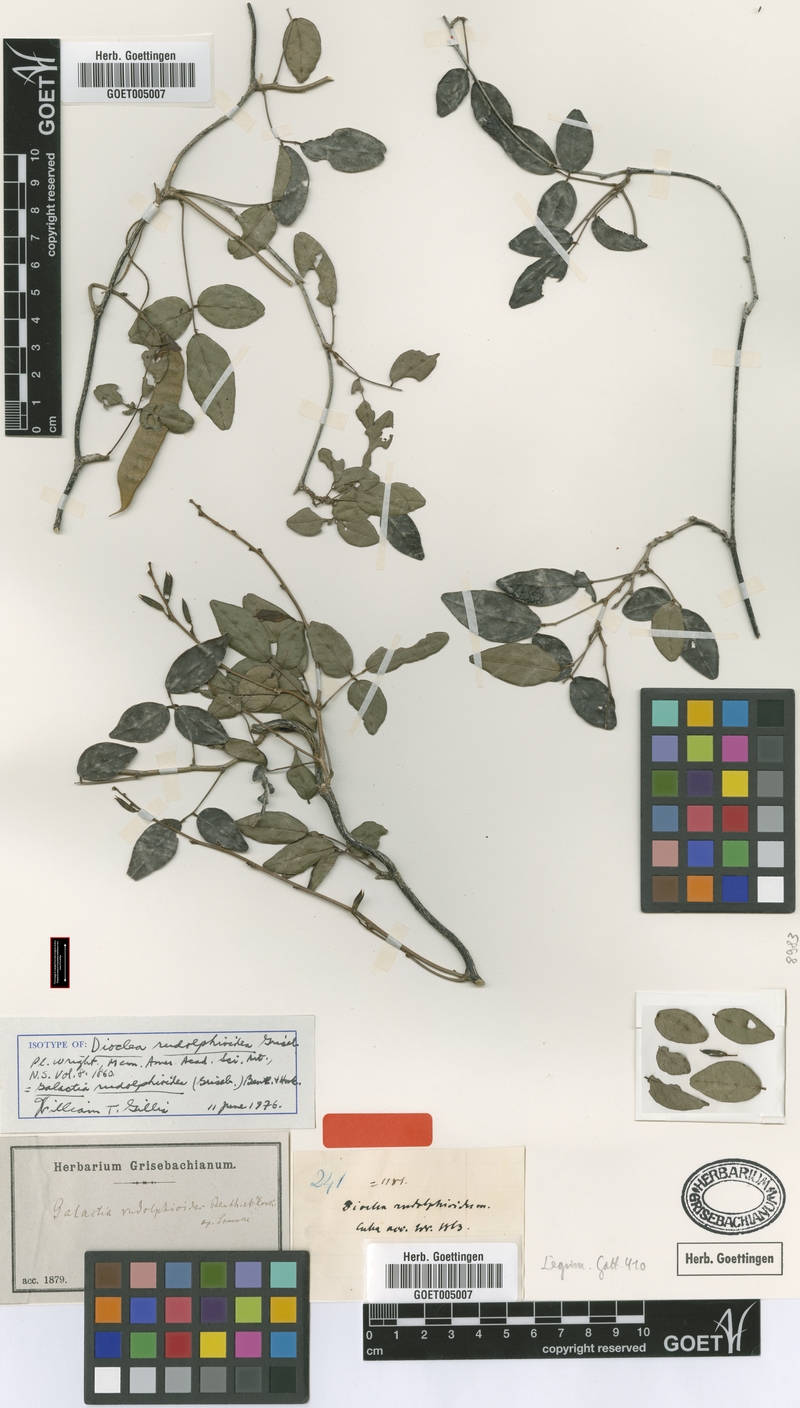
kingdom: Plantae
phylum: Tracheophyta
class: Magnoliopsida
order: Fabales
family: Fabaceae
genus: Rhodopis
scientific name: Rhodopis rudolphioides
